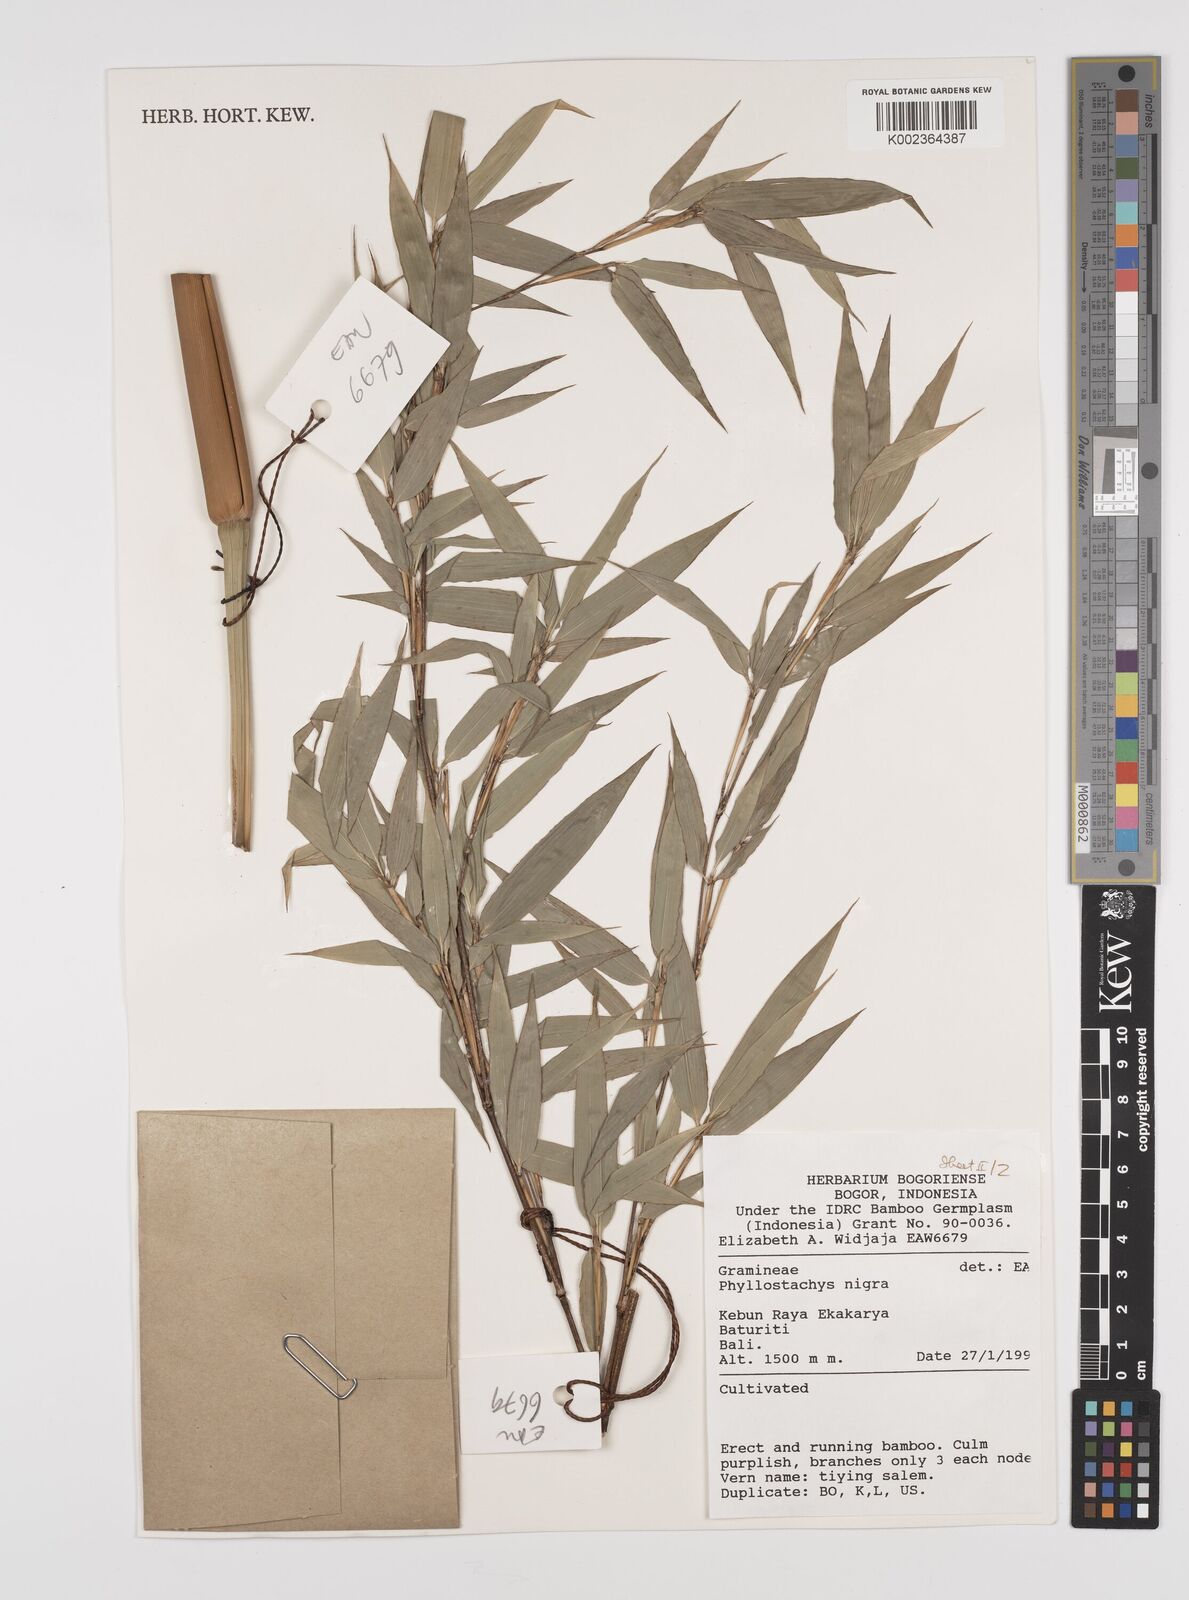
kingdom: Plantae
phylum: Tracheophyta
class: Liliopsida
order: Poales
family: Poaceae
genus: Phyllostachys
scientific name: Phyllostachys
